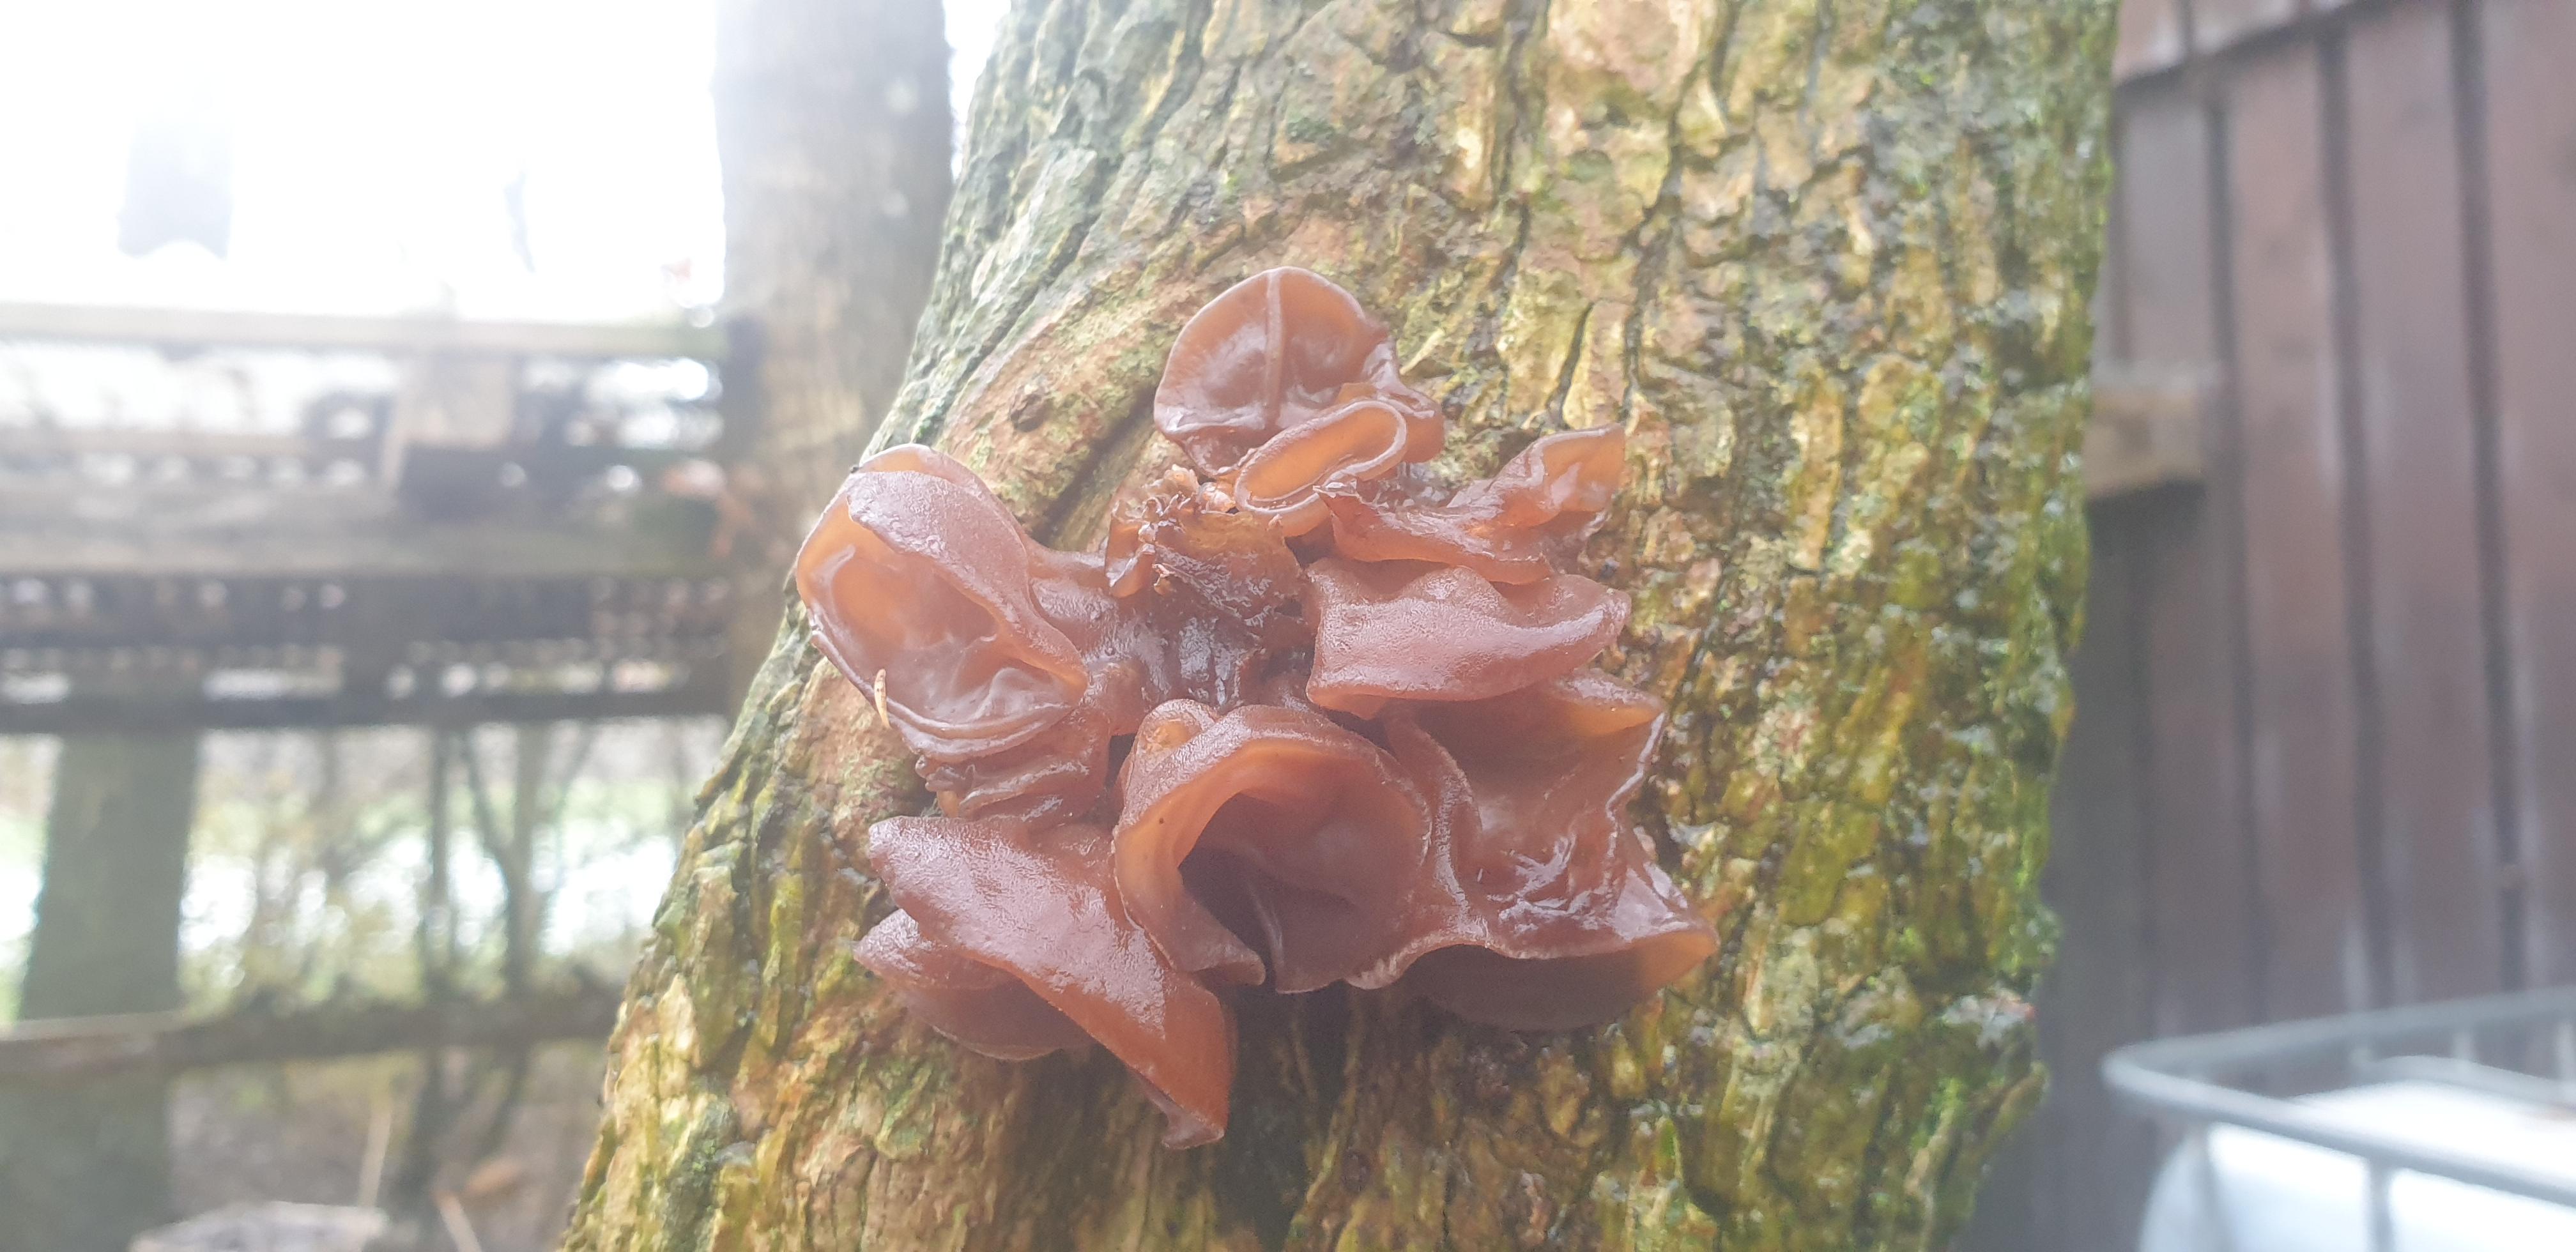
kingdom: Fungi
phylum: Basidiomycota
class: Agaricomycetes
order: Auriculariales
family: Auriculariaceae
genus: Auricularia
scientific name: Auricularia auricula-judae
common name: almindelig judasøre
